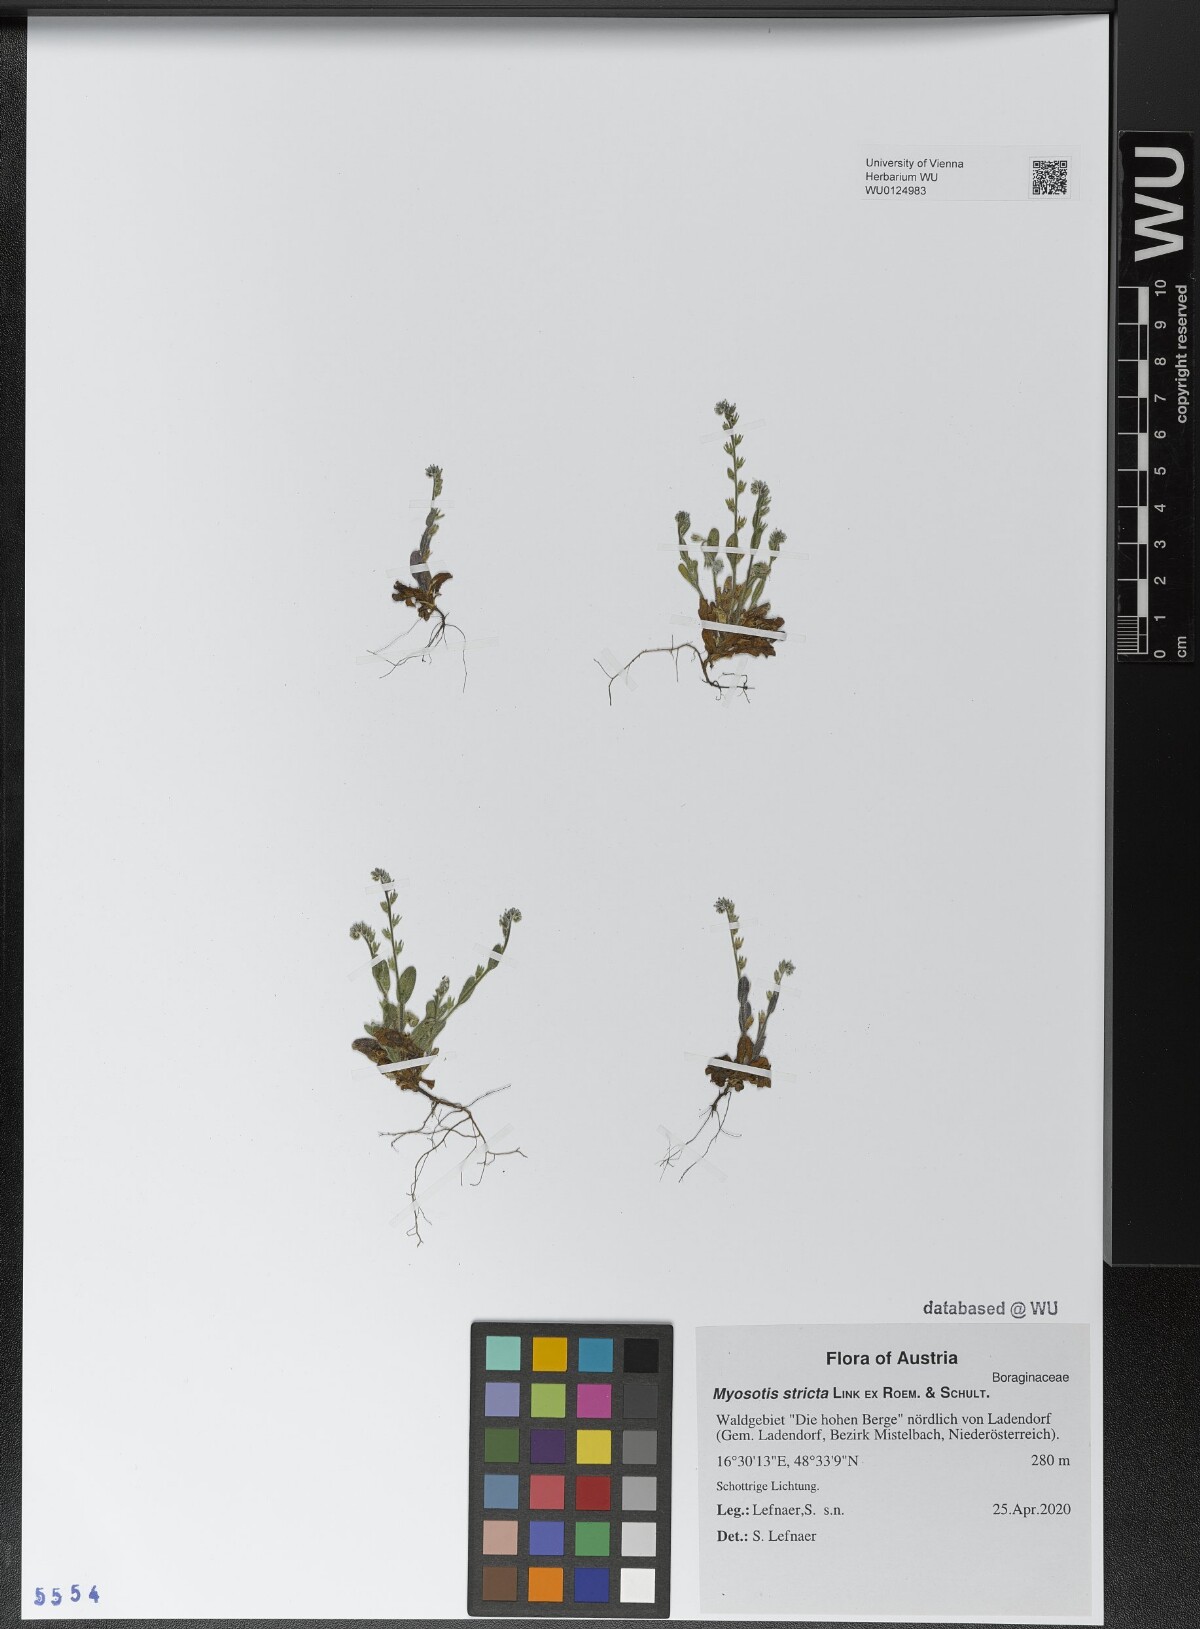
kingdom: Plantae
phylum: Tracheophyta
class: Magnoliopsida
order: Boraginales
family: Boraginaceae
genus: Myosotis
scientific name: Myosotis stricta
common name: Strict forget-me-not
